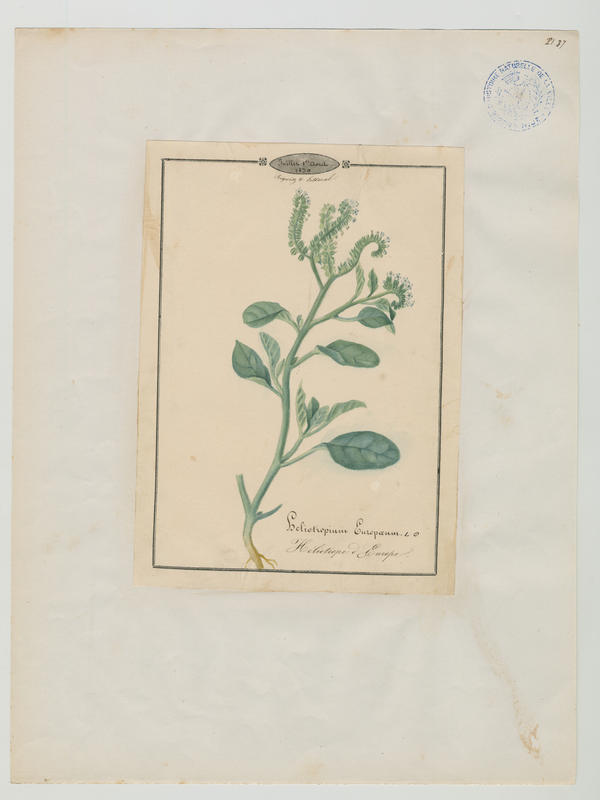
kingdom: Plantae
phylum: Tracheophyta
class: Magnoliopsida
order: Boraginales
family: Heliotropiaceae
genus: Heliotropium
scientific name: Heliotropium europaeum
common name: European heliotrope
